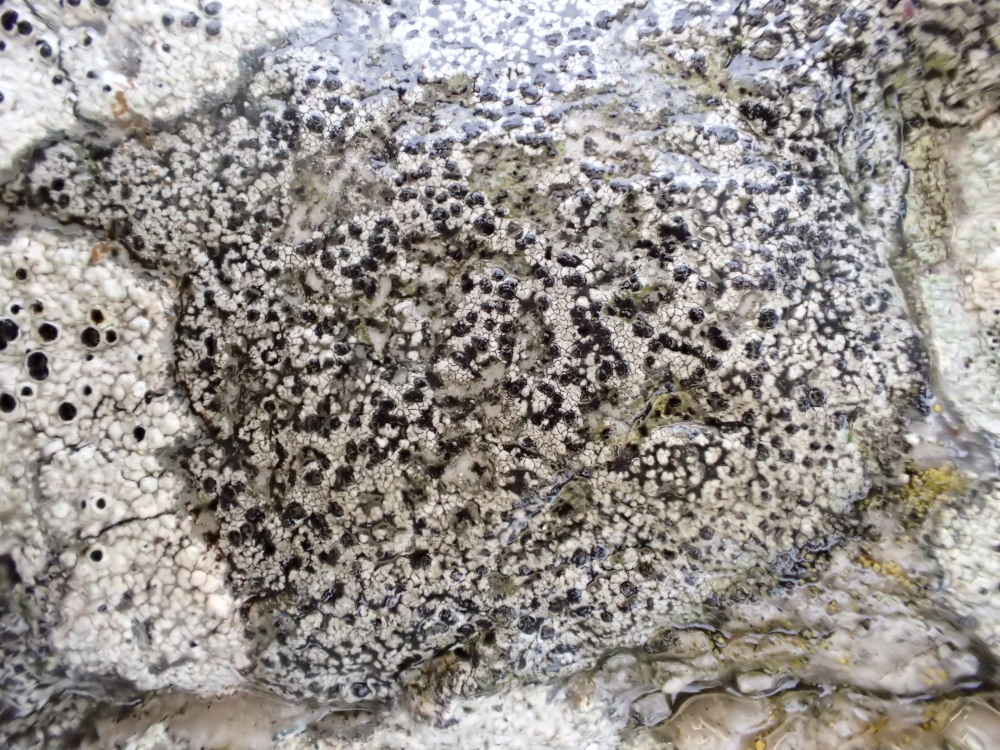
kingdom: Fungi
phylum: Ascomycota
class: Lecanoromycetes
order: Rhizocarpales
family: Rhizocarpaceae
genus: Rhizocarpon
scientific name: Rhizocarpon reductum
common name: mørk landkortlav
